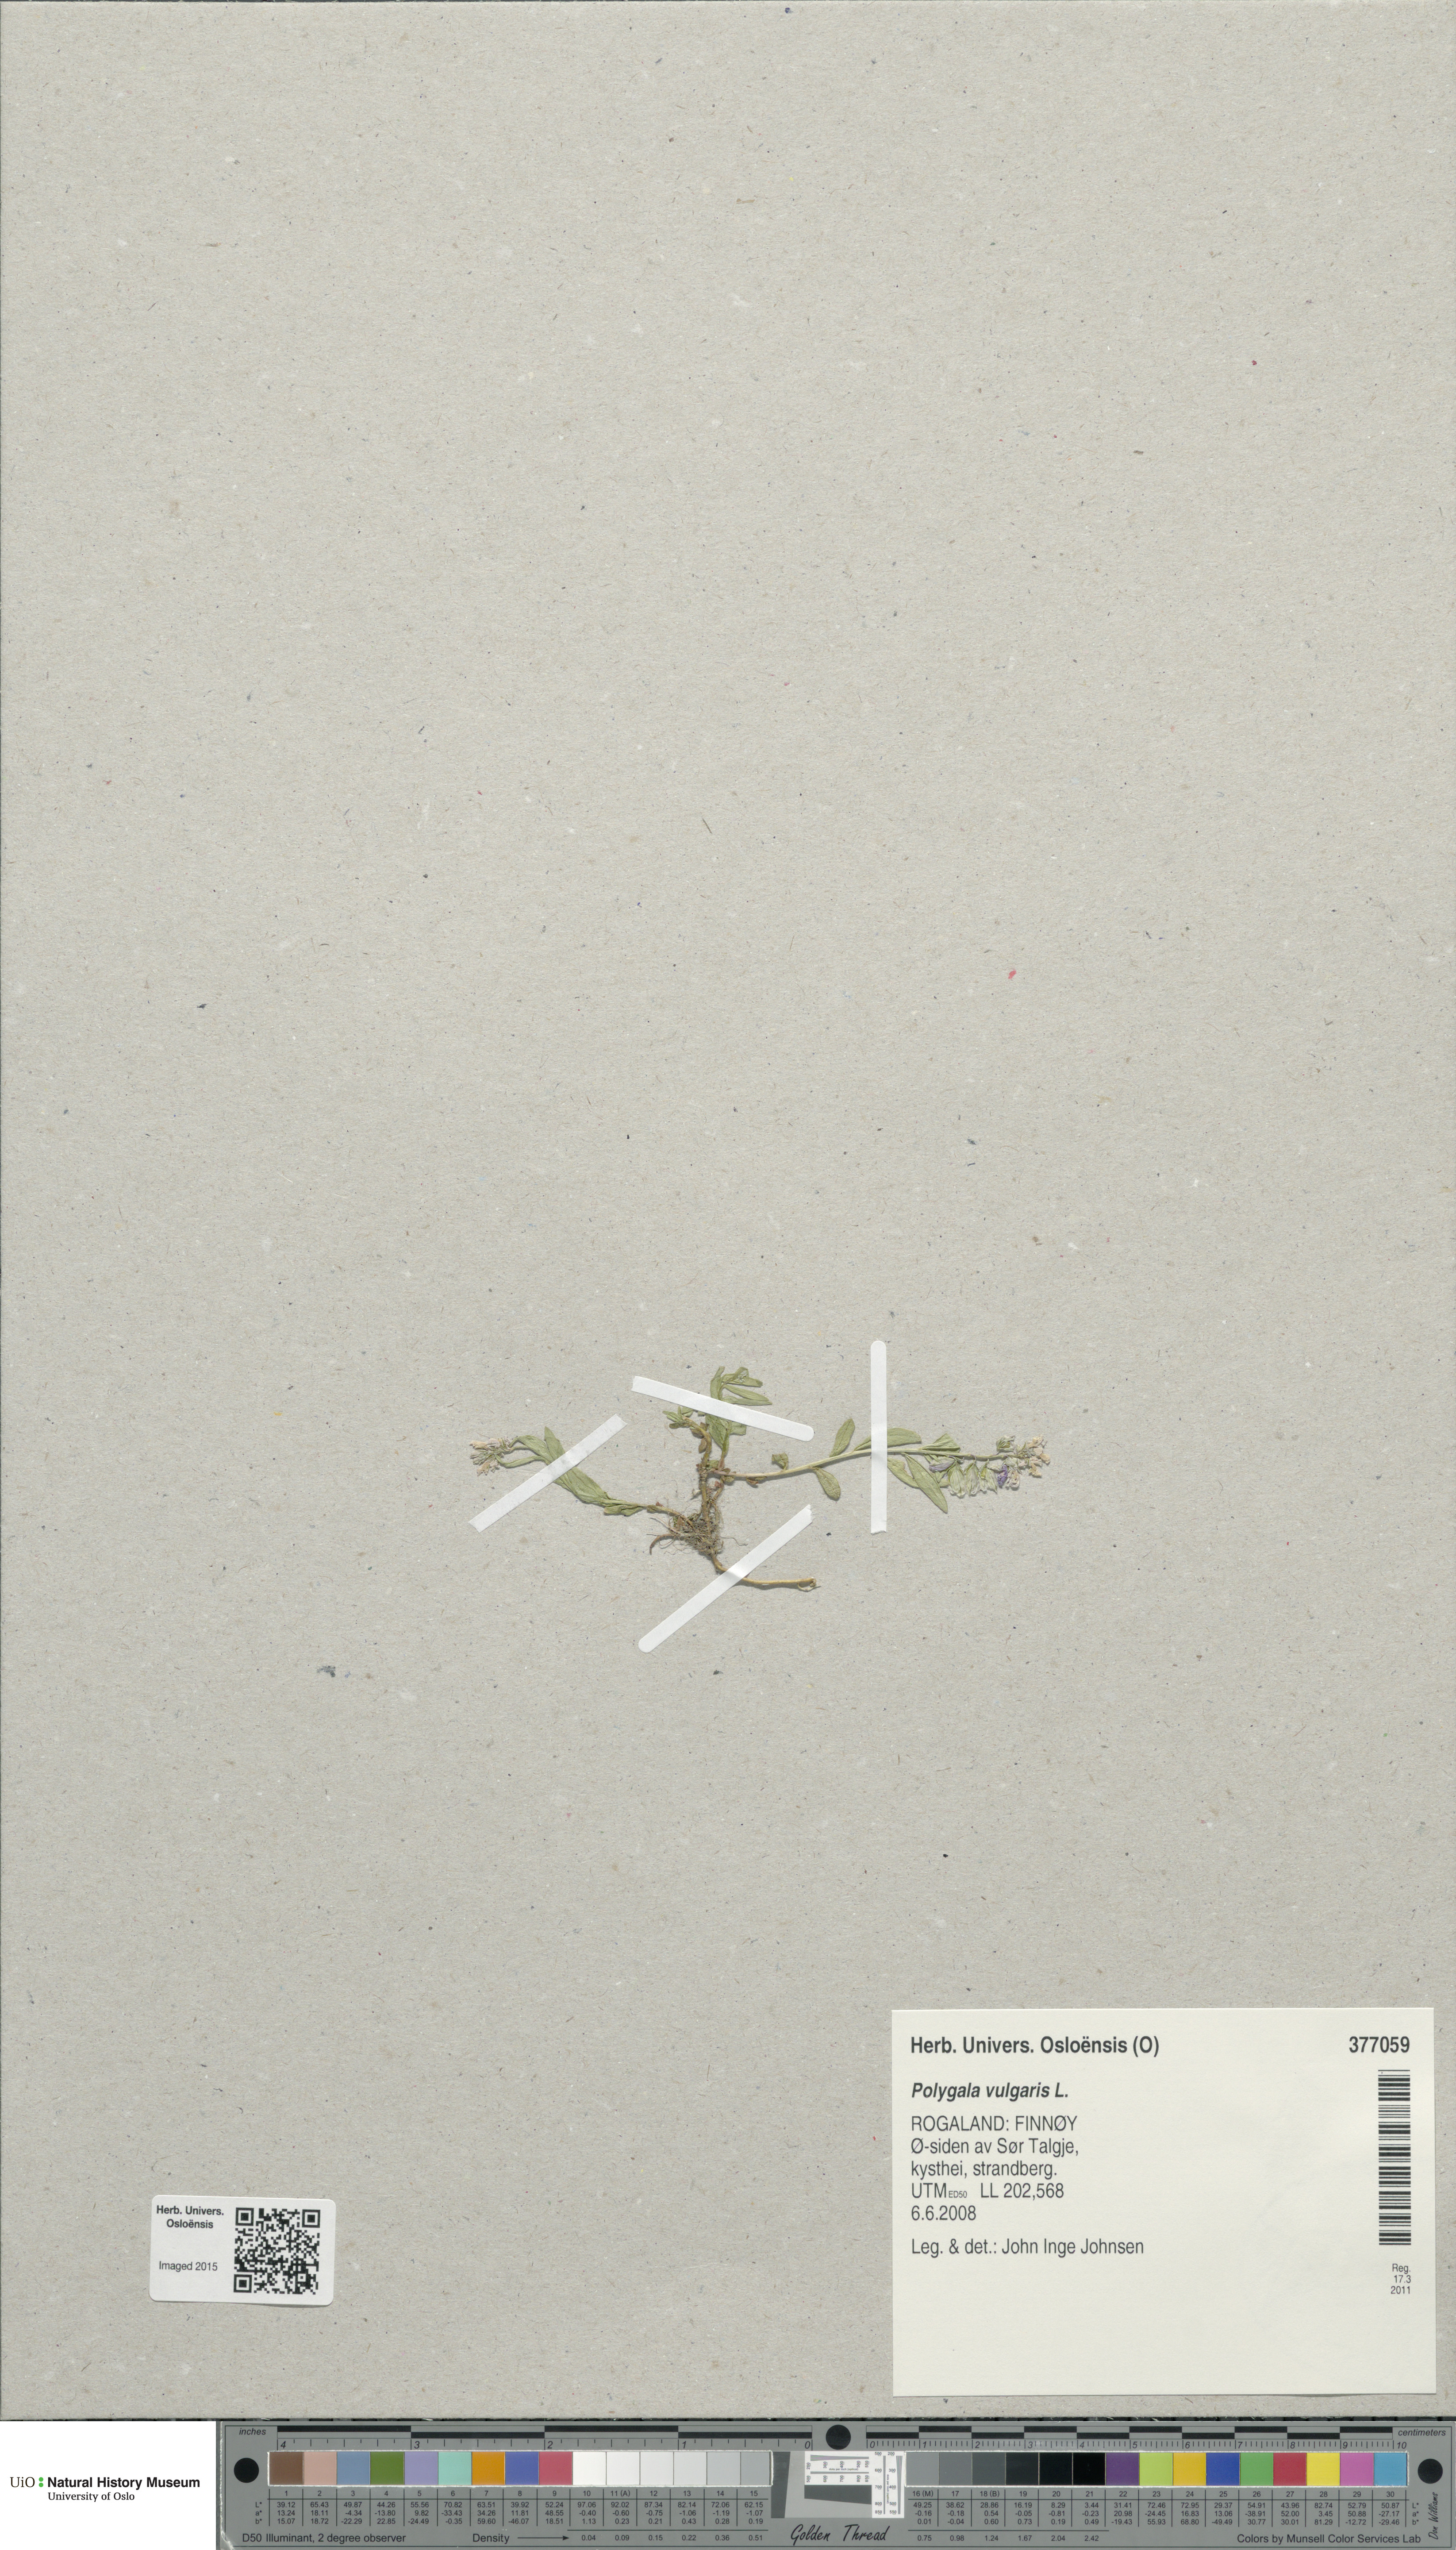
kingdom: Plantae
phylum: Tracheophyta
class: Magnoliopsida
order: Fabales
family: Polygalaceae
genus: Polygala
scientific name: Polygala vulgaris
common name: Common milkwort
